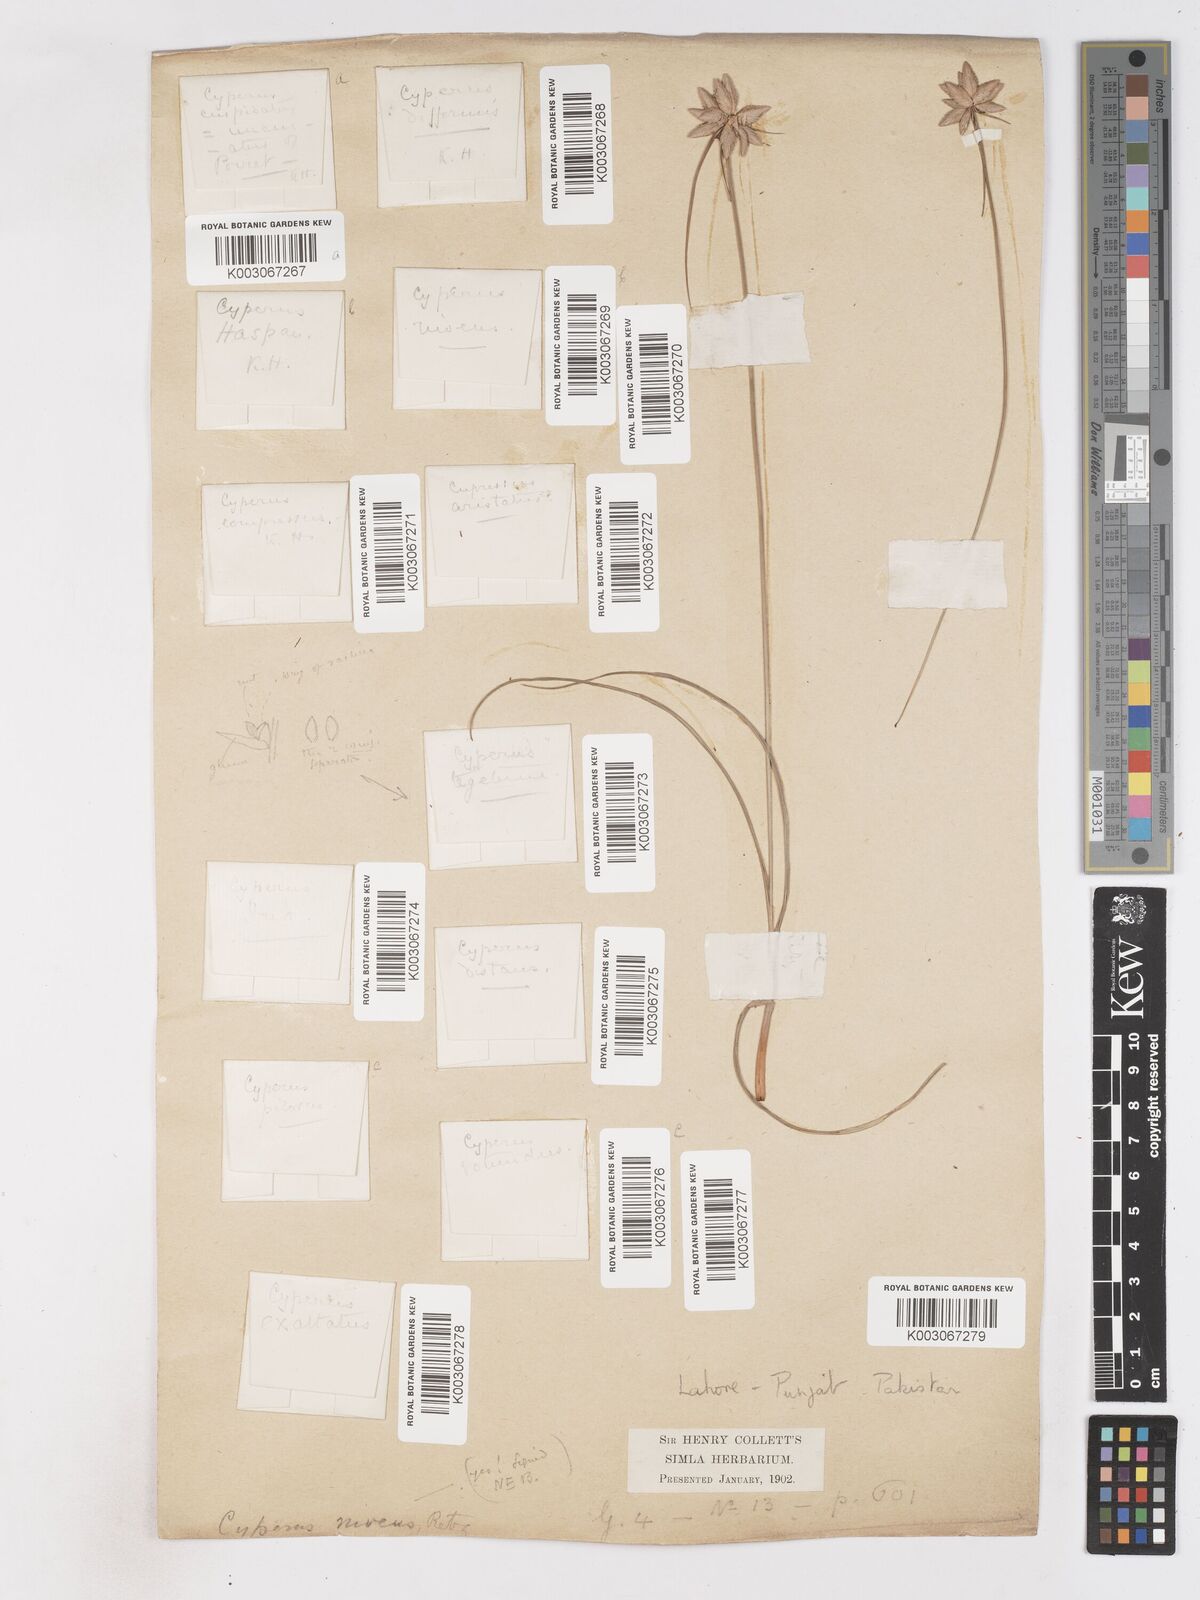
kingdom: Plantae
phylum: Tracheophyta
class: Liliopsida
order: Poales
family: Cyperaceae
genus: Cyperus
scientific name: Cyperus niveus
